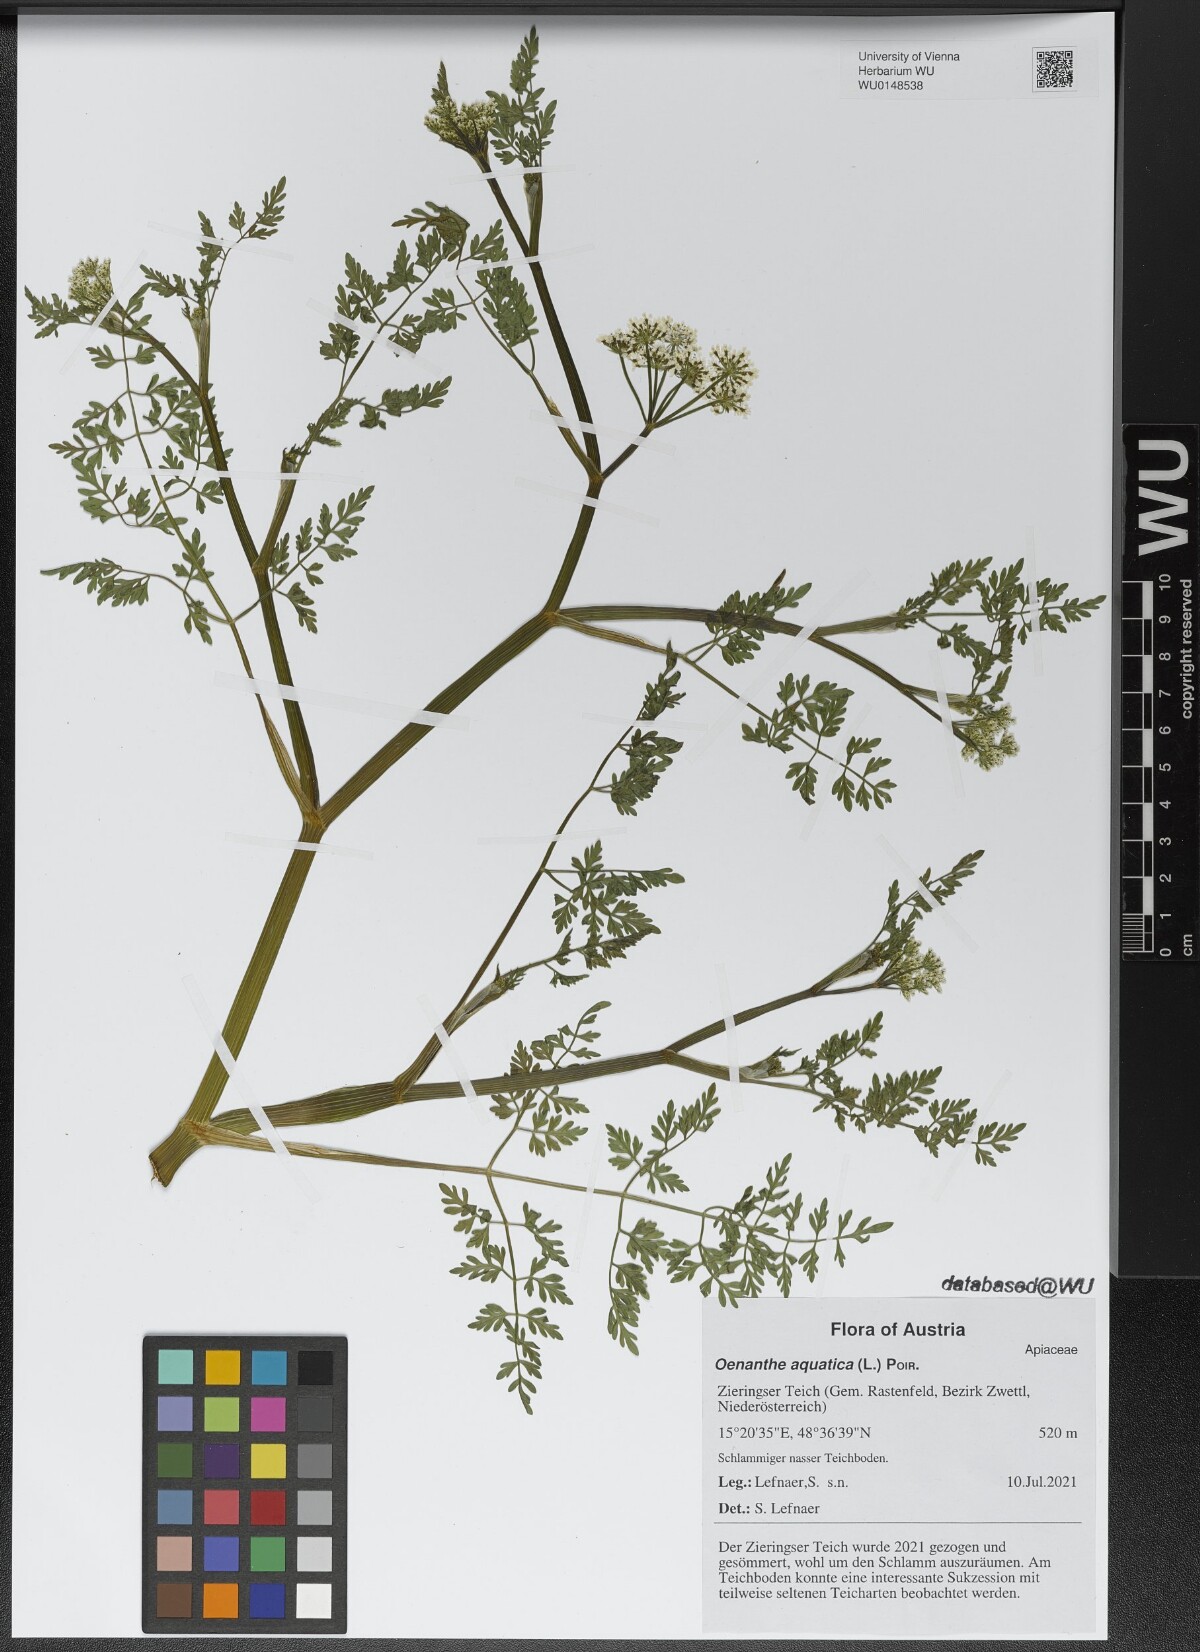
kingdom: Plantae
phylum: Tracheophyta
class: Magnoliopsida
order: Apiales
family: Apiaceae
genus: Oenanthe
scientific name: Oenanthe aquatica
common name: Fine-leaved water-dropwort
